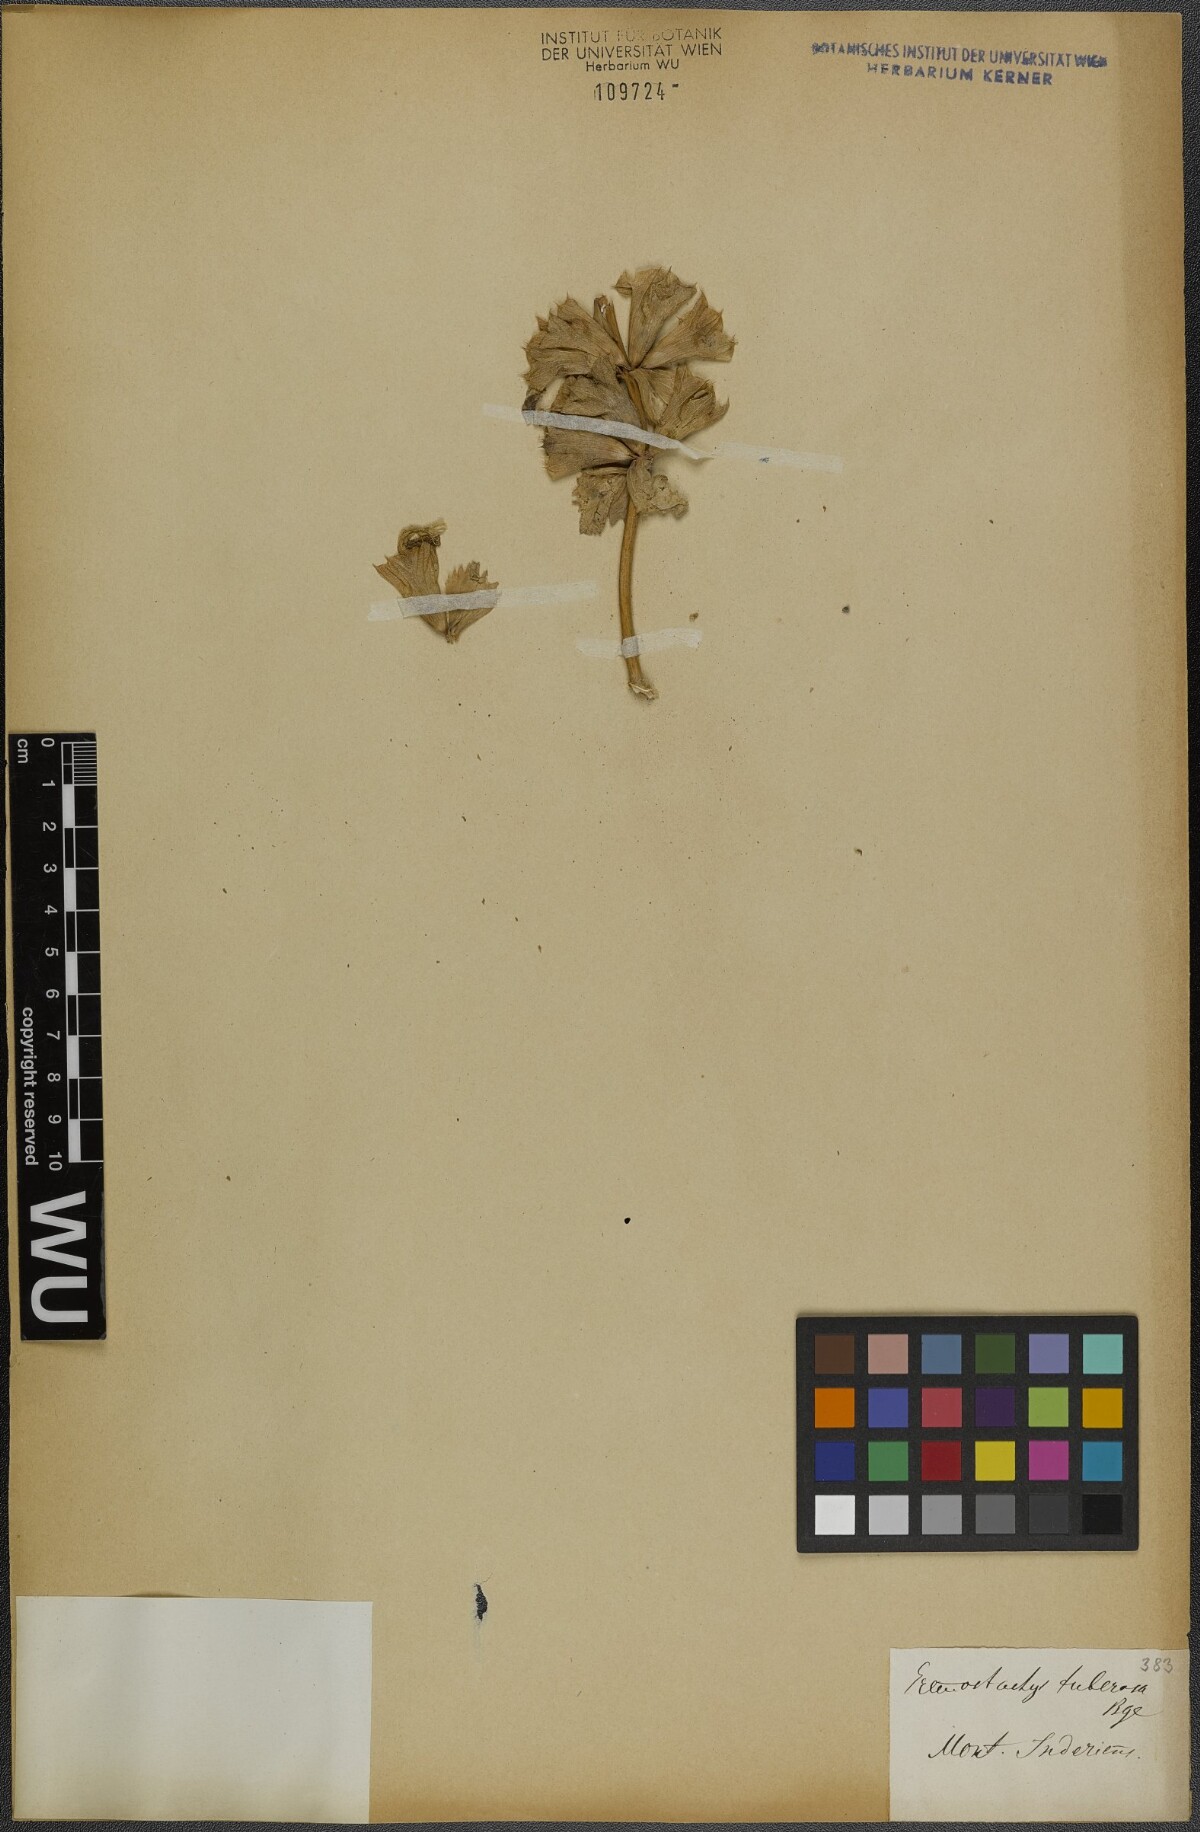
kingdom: Plantae
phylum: Tracheophyta
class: Magnoliopsida
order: Lamiales
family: Lamiaceae
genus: Phlomoides
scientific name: Phlomoides uralensis
